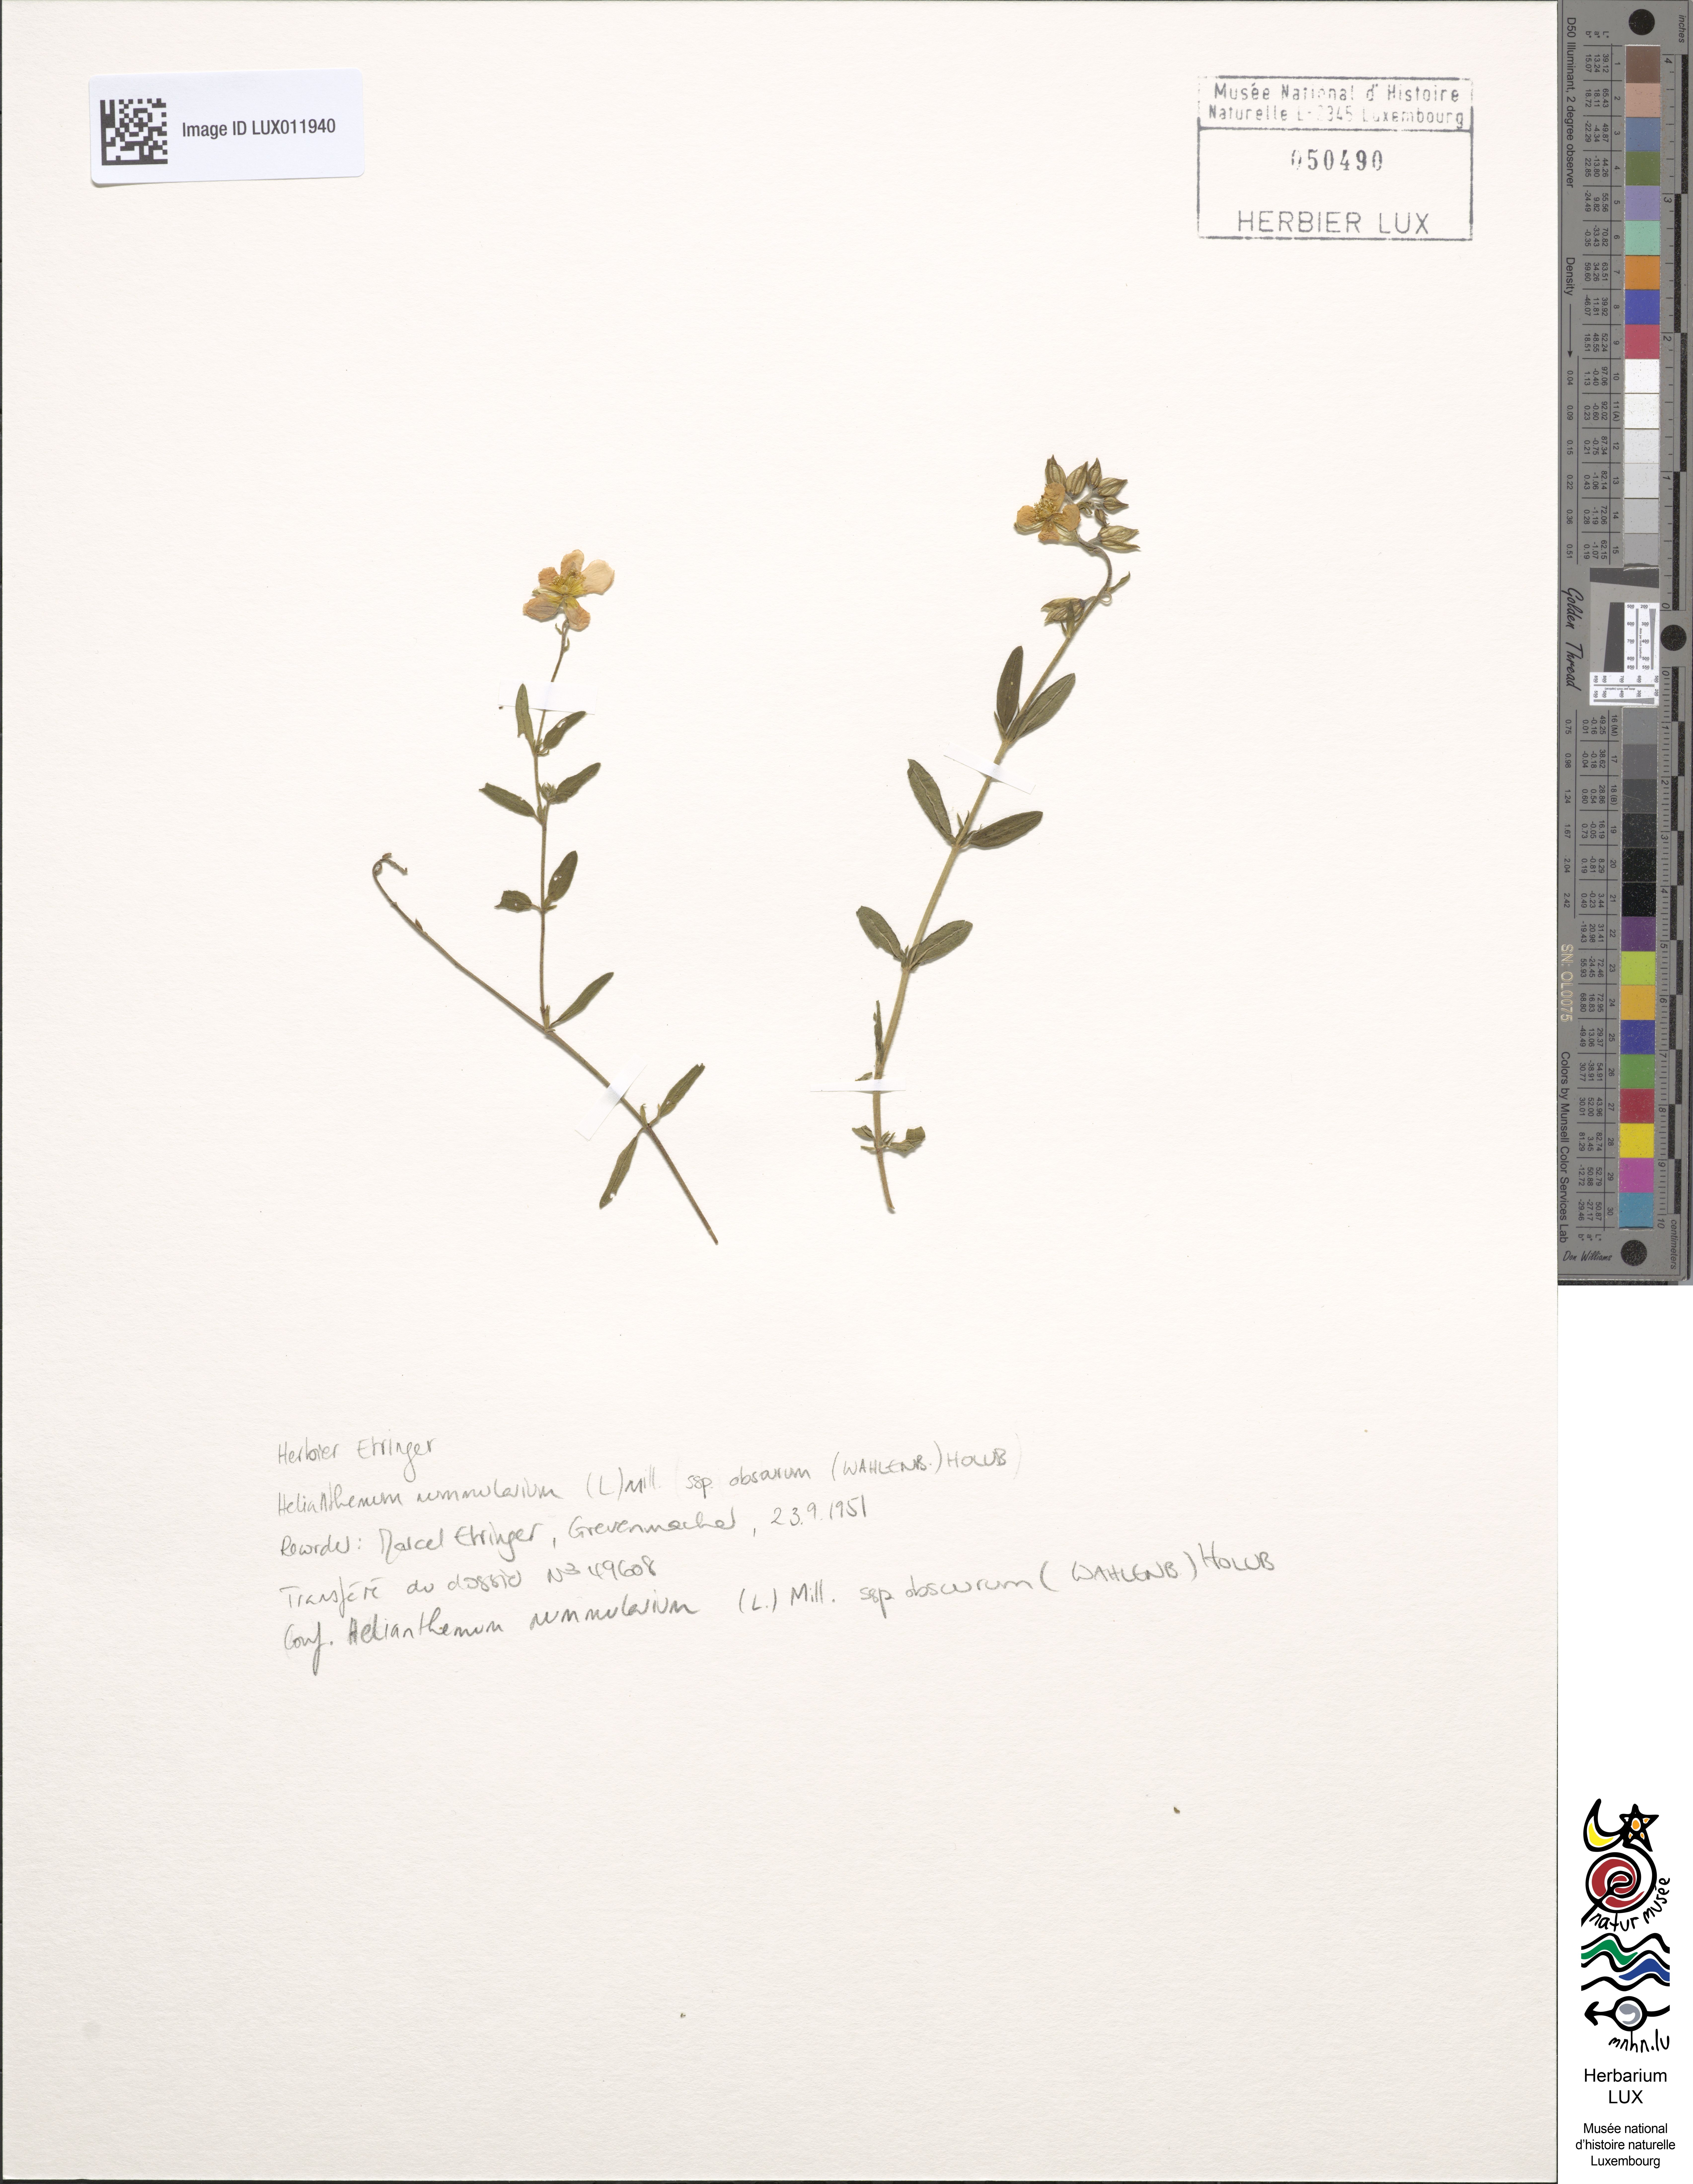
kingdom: Plantae
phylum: Tracheophyta
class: Magnoliopsida
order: Malvales
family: Cistaceae
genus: Helianthemum
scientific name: Helianthemum nummularium
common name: Common rock-rose
